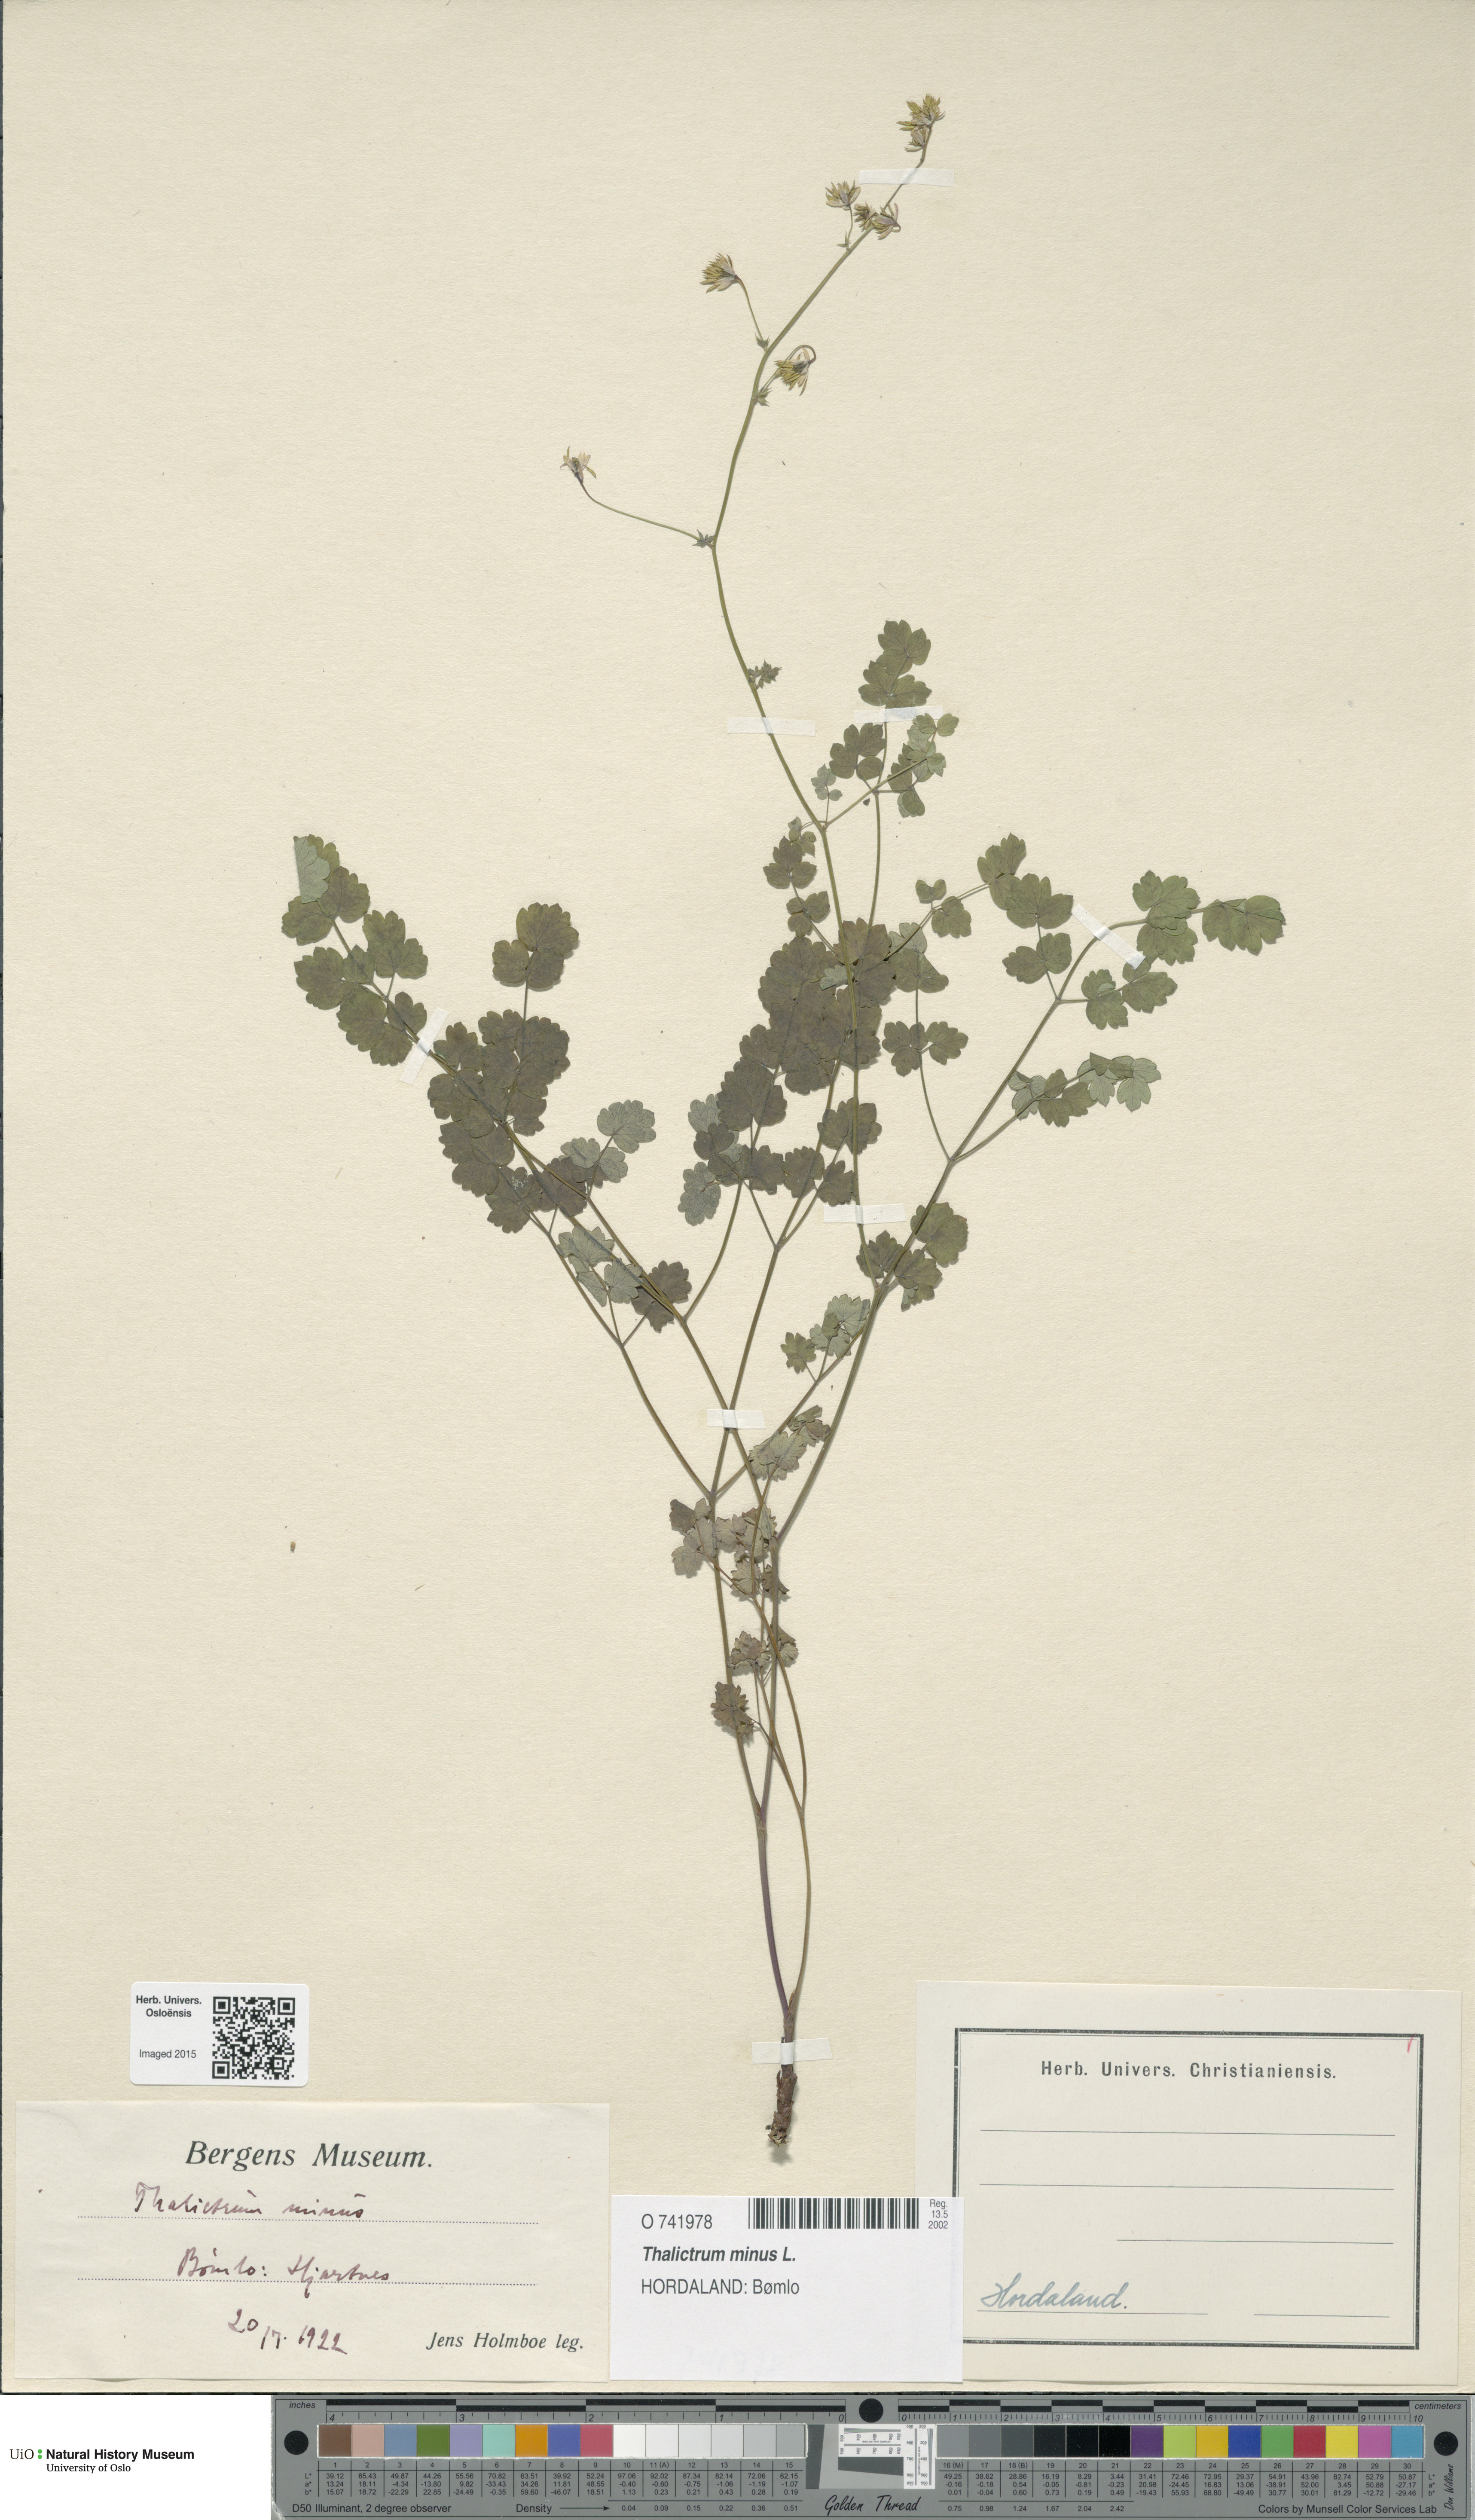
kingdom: Plantae
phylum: Tracheophyta
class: Magnoliopsida
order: Ranunculales
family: Ranunculaceae
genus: Thalictrum
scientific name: Thalictrum minus
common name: Lesser meadow-rue
